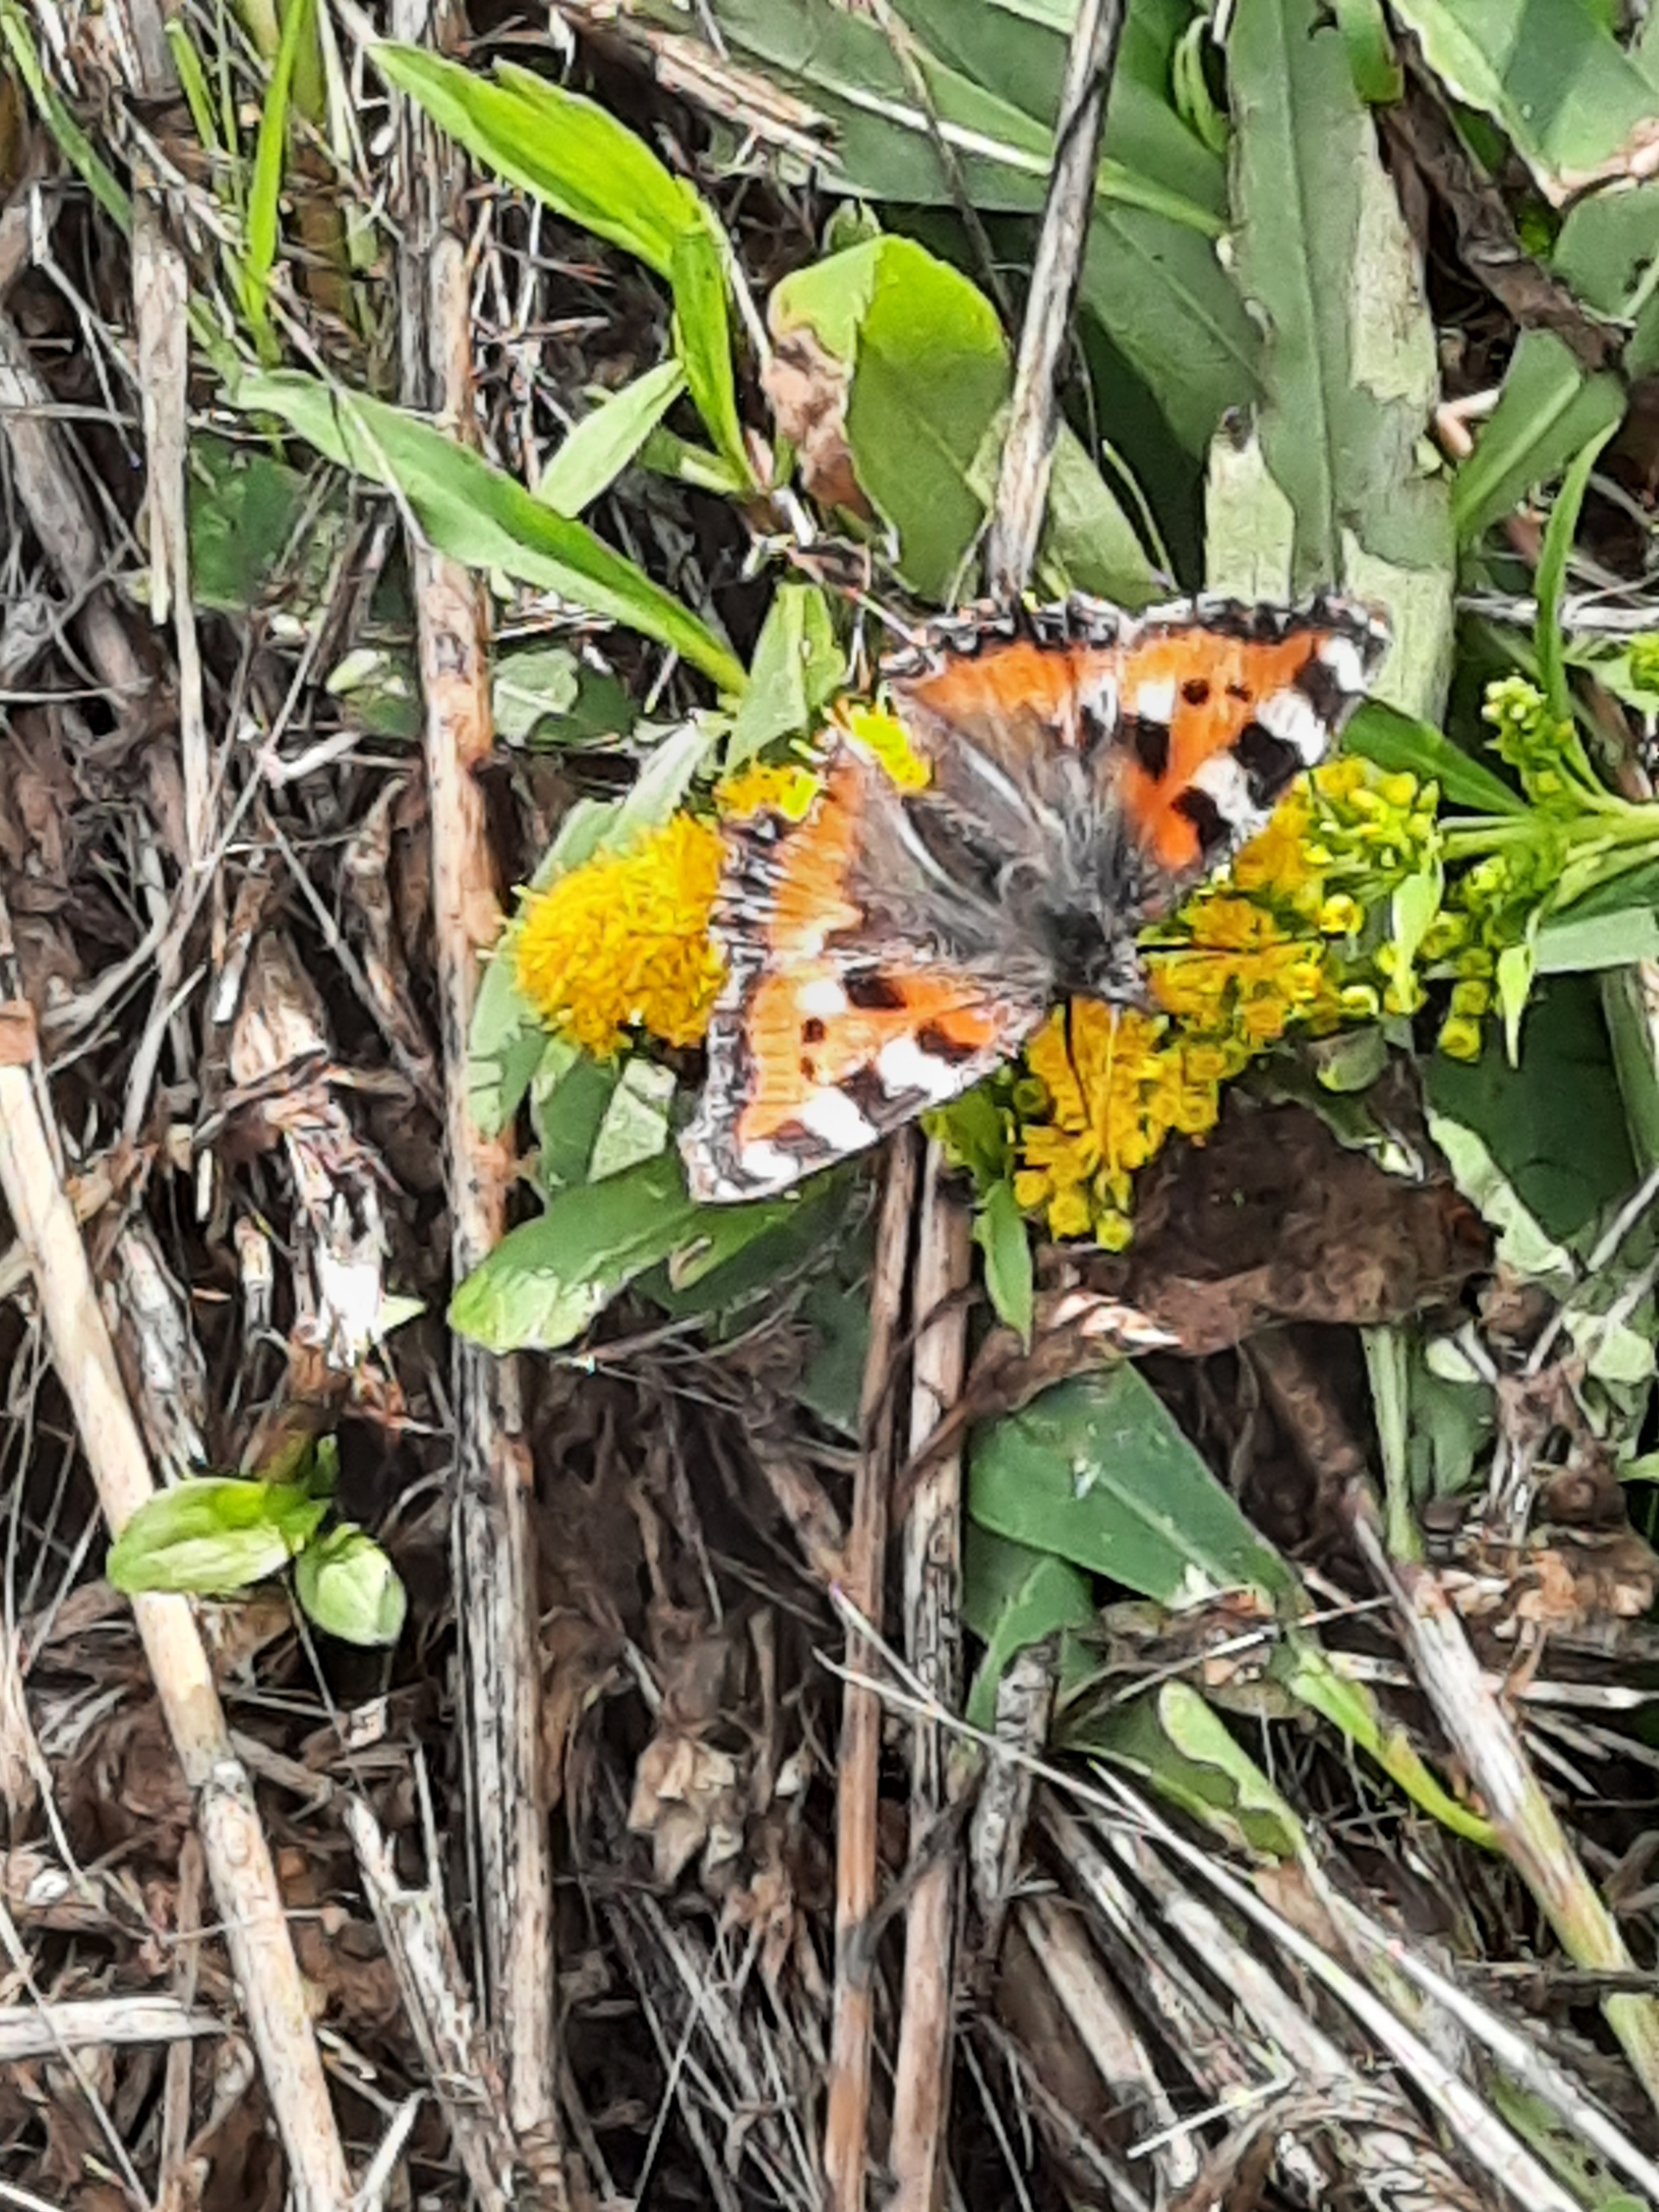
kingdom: Animalia
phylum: Arthropoda
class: Insecta
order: Lepidoptera
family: Nymphalidae
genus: Aglais
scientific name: Aglais urticae
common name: Nældens takvinge
